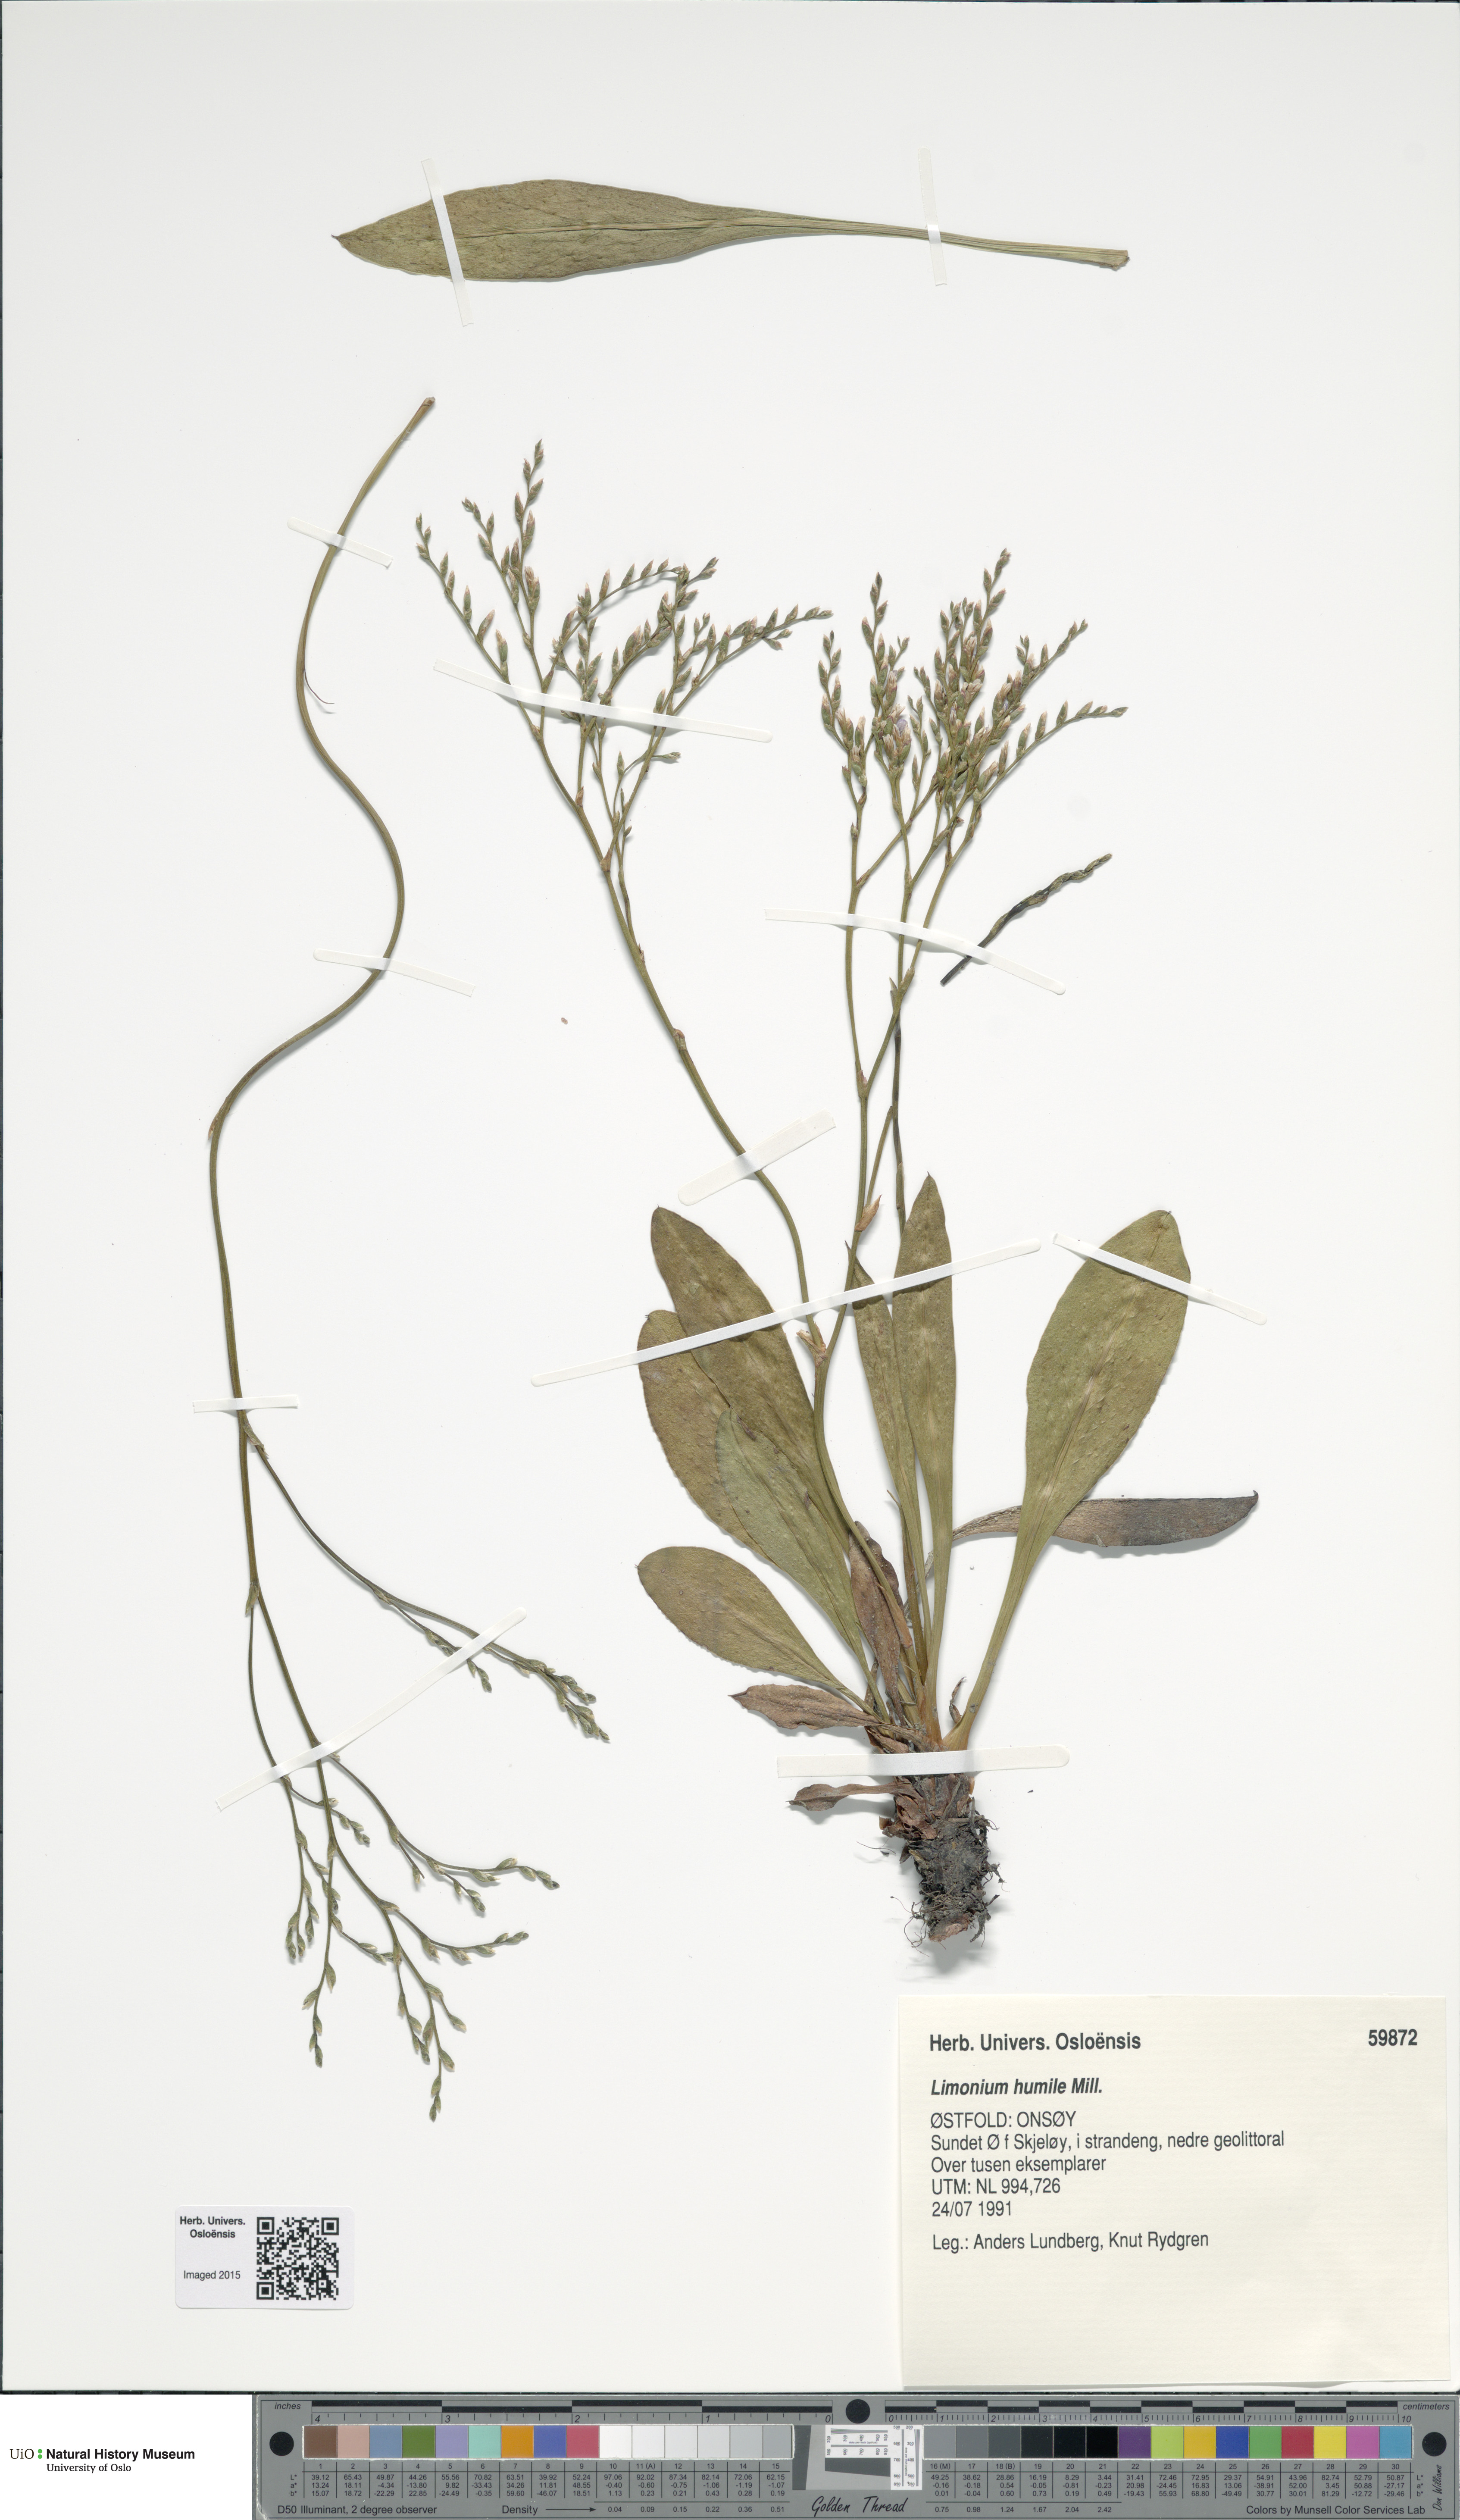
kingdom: Plantae
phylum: Tracheophyta
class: Magnoliopsida
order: Caryophyllales
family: Plumbaginaceae
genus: Limonium
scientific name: Limonium humile
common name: Lax-flowered sea-lavender
